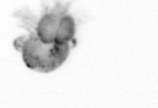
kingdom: Animalia
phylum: Arthropoda
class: Copepoda
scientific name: Copepoda
